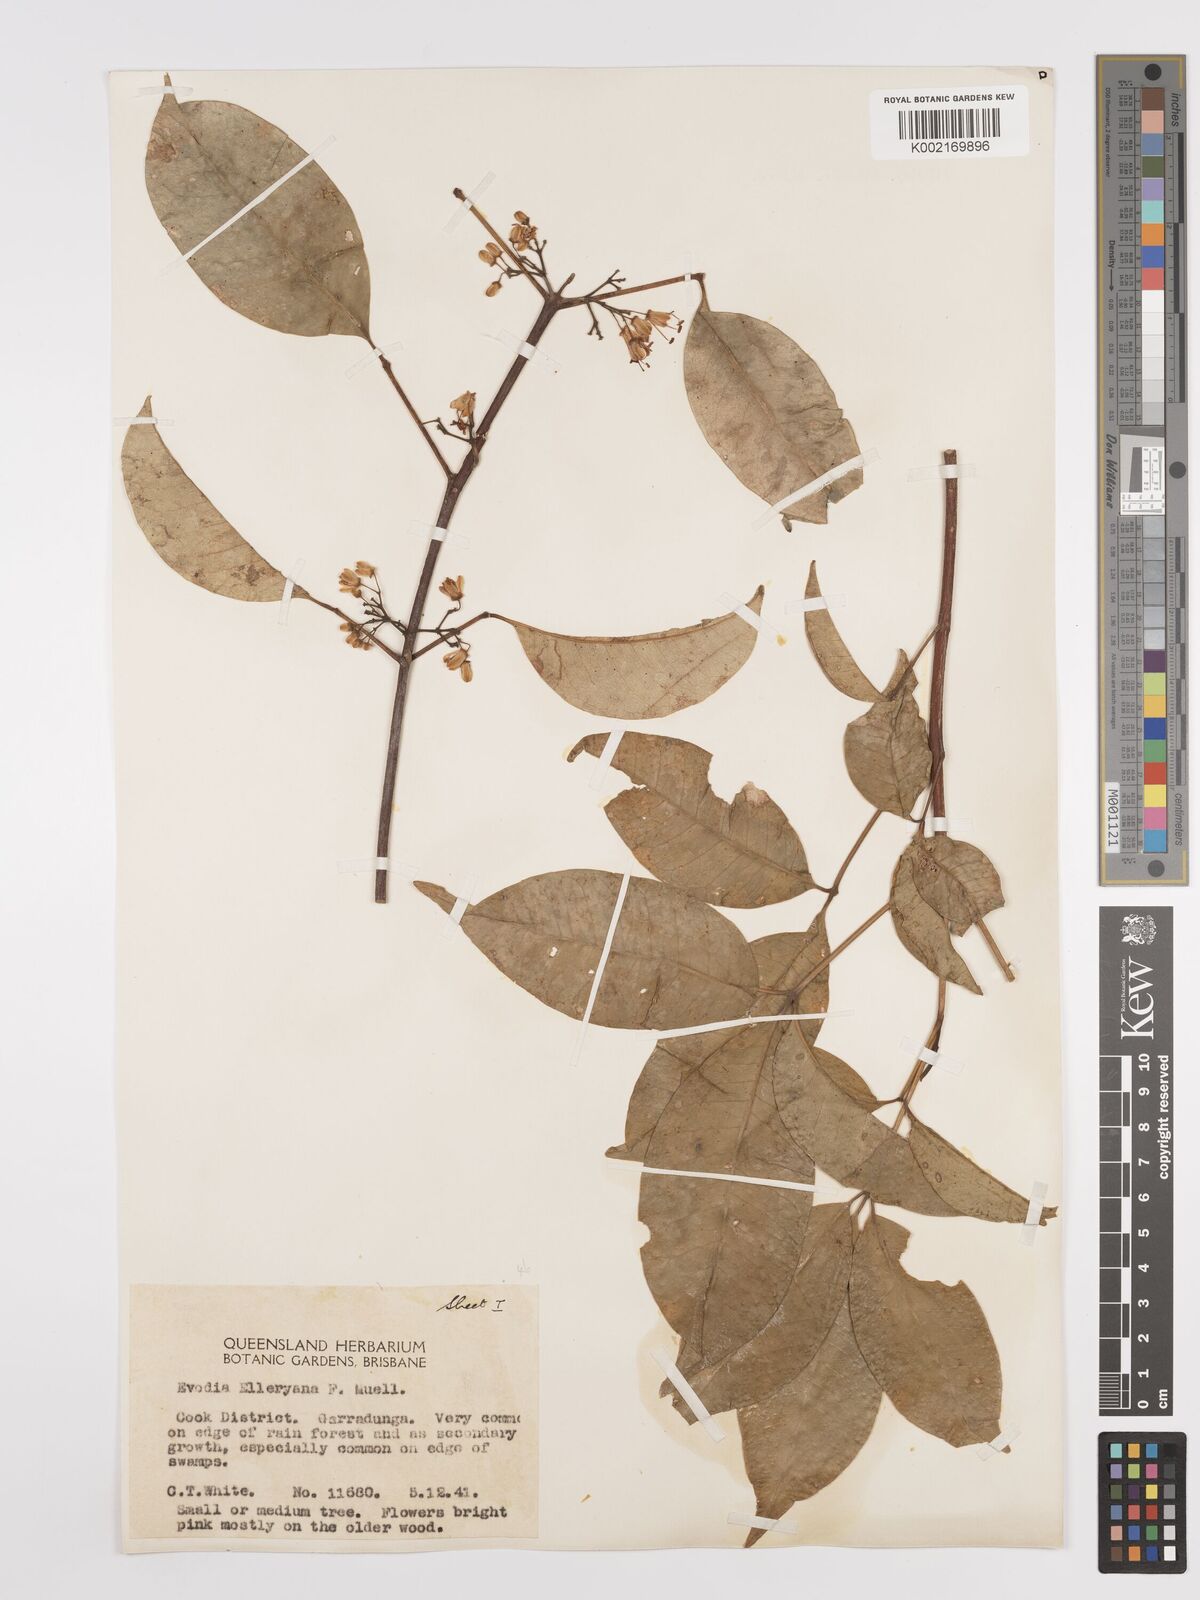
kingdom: Plantae
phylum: Tracheophyta
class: Magnoliopsida
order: Sapindales
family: Rutaceae
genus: Melicope
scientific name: Melicope accedens
